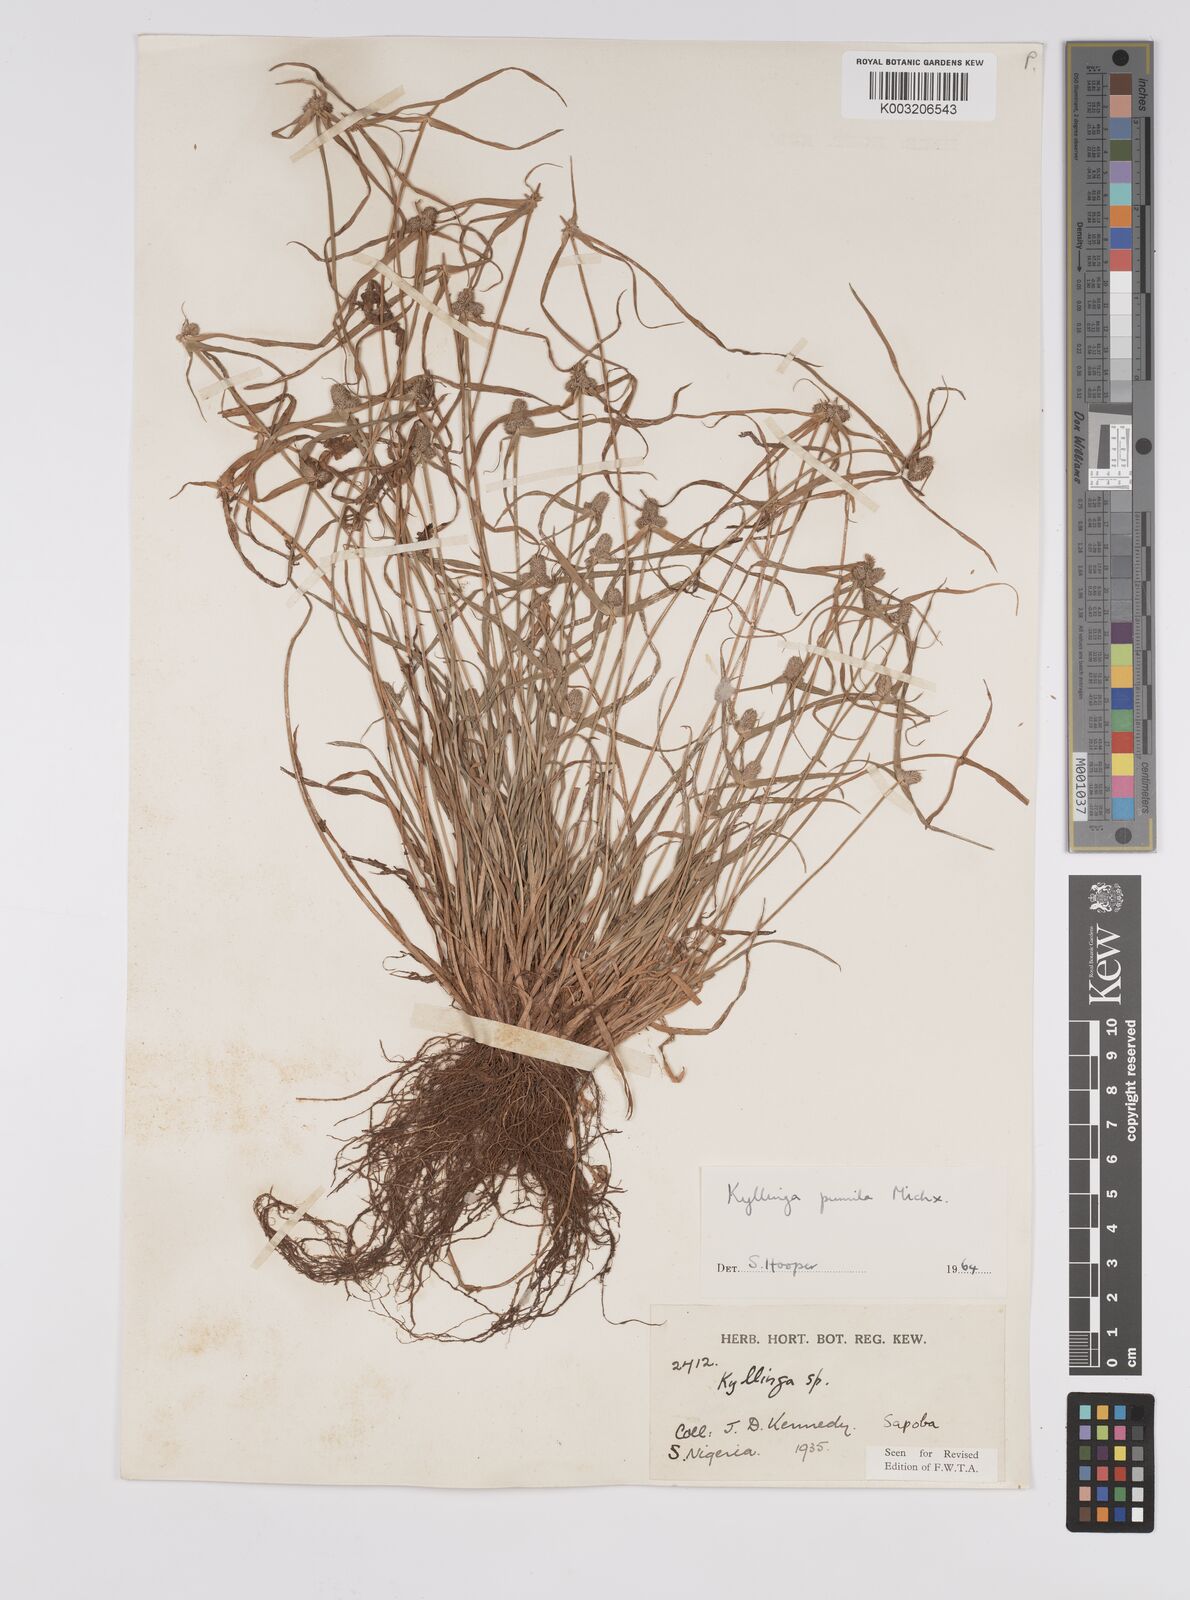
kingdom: Plantae
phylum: Tracheophyta
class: Liliopsida
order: Poales
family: Cyperaceae
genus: Cyperus
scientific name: Cyperus
